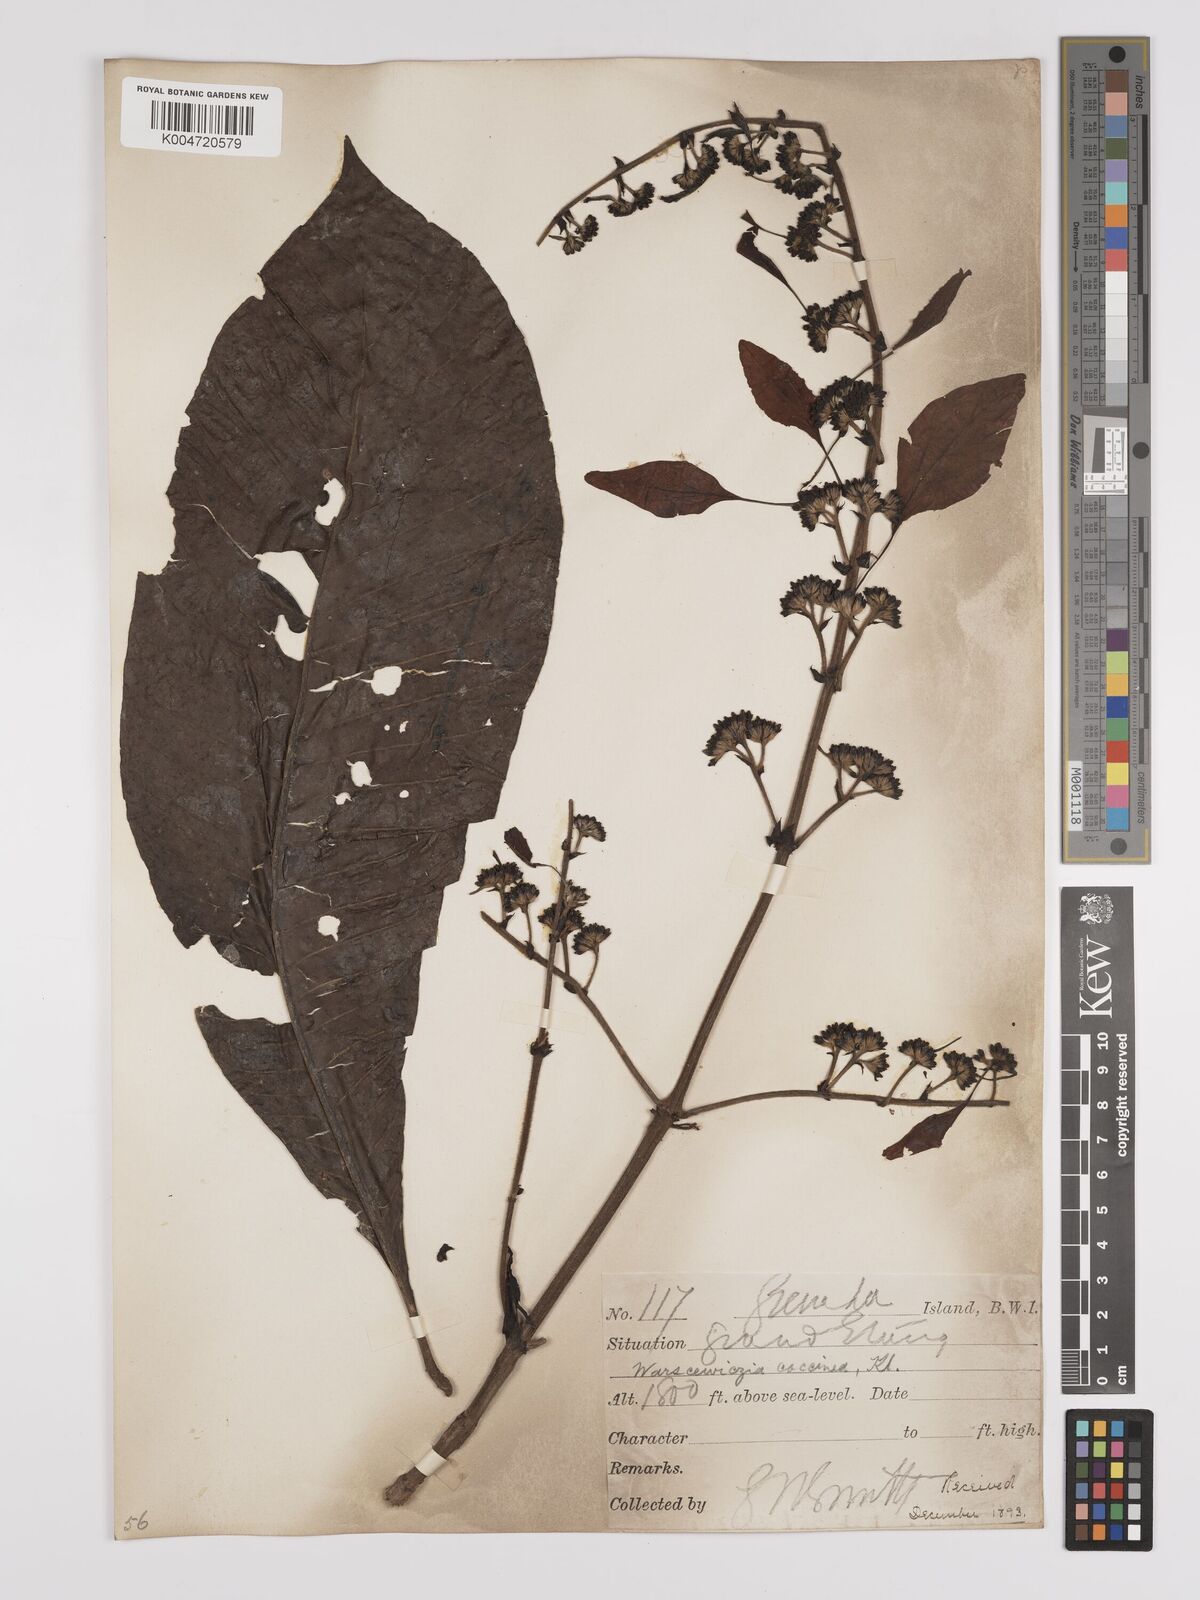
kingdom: Plantae
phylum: Tracheophyta
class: Magnoliopsida
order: Gentianales
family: Rubiaceae
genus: Warszewiczia
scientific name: Warszewiczia coccinea
